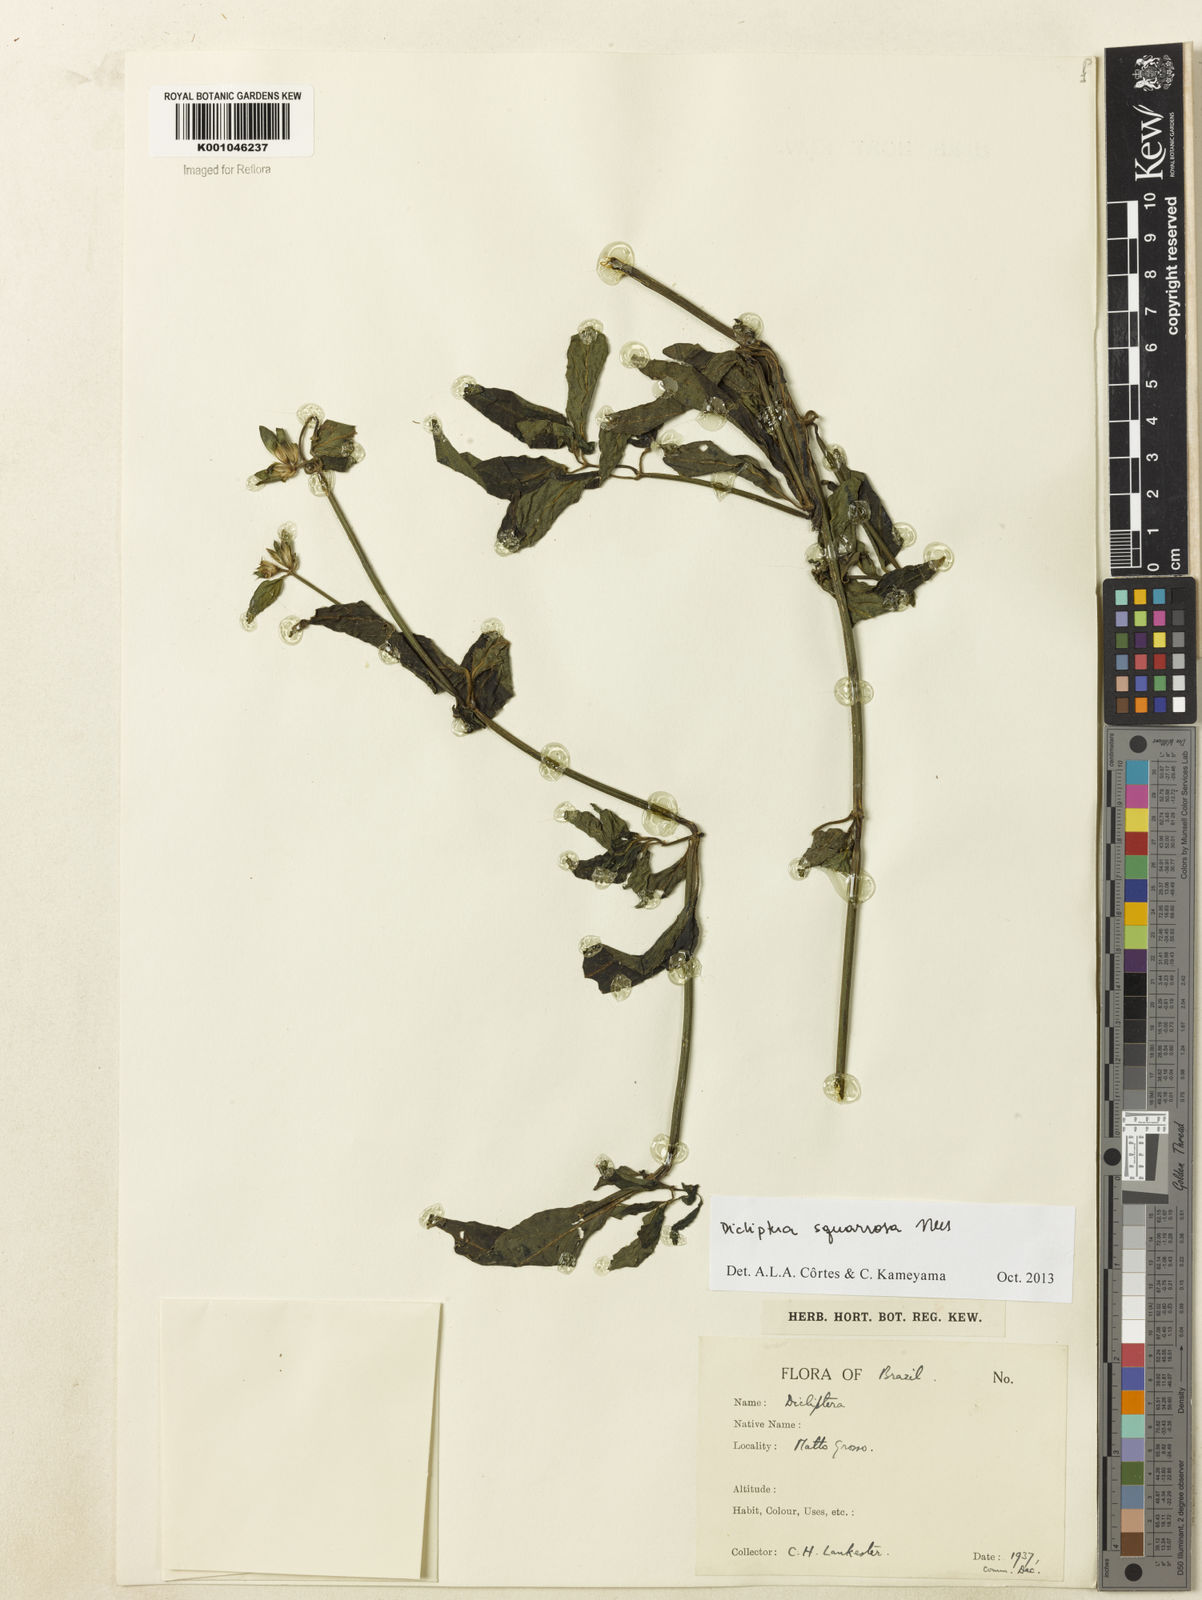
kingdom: Plantae
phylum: Tracheophyta
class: Magnoliopsida
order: Lamiales
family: Acanthaceae
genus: Dicliptera
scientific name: Dicliptera squarrosa
